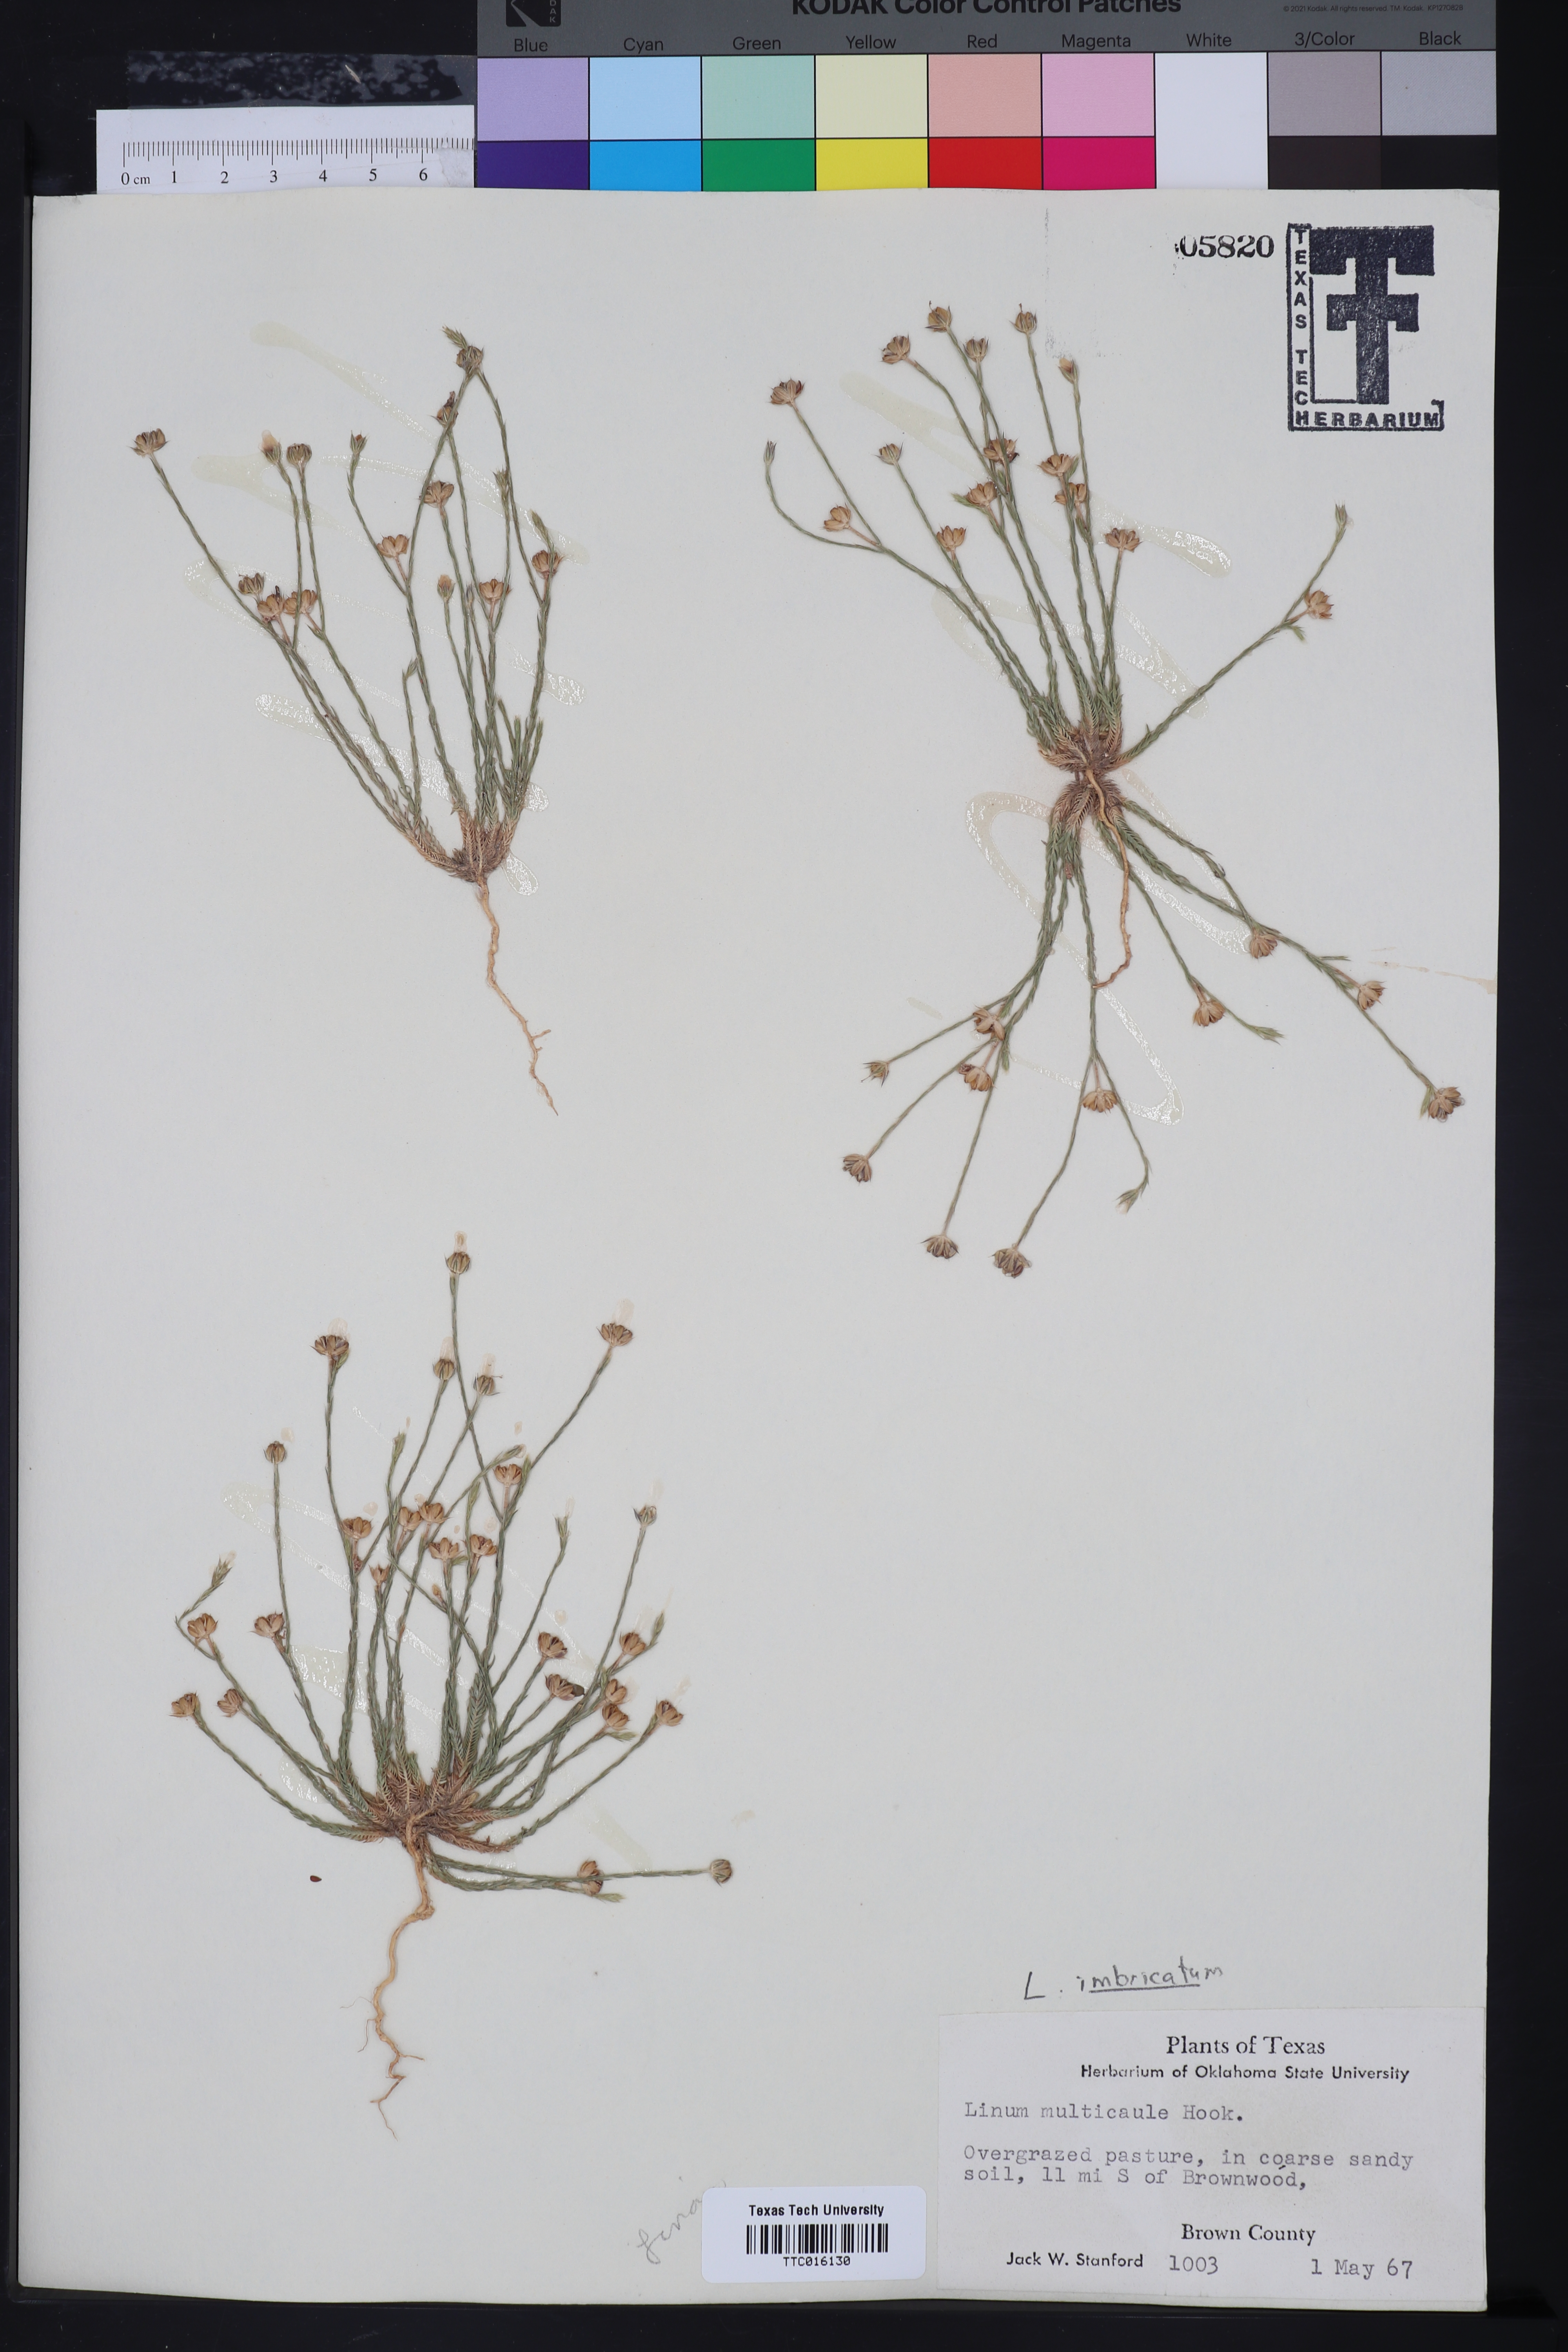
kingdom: Plantae
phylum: Tracheophyta
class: Magnoliopsida
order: Malpighiales
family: Linaceae
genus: Linum
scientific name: Linum imbricatum
